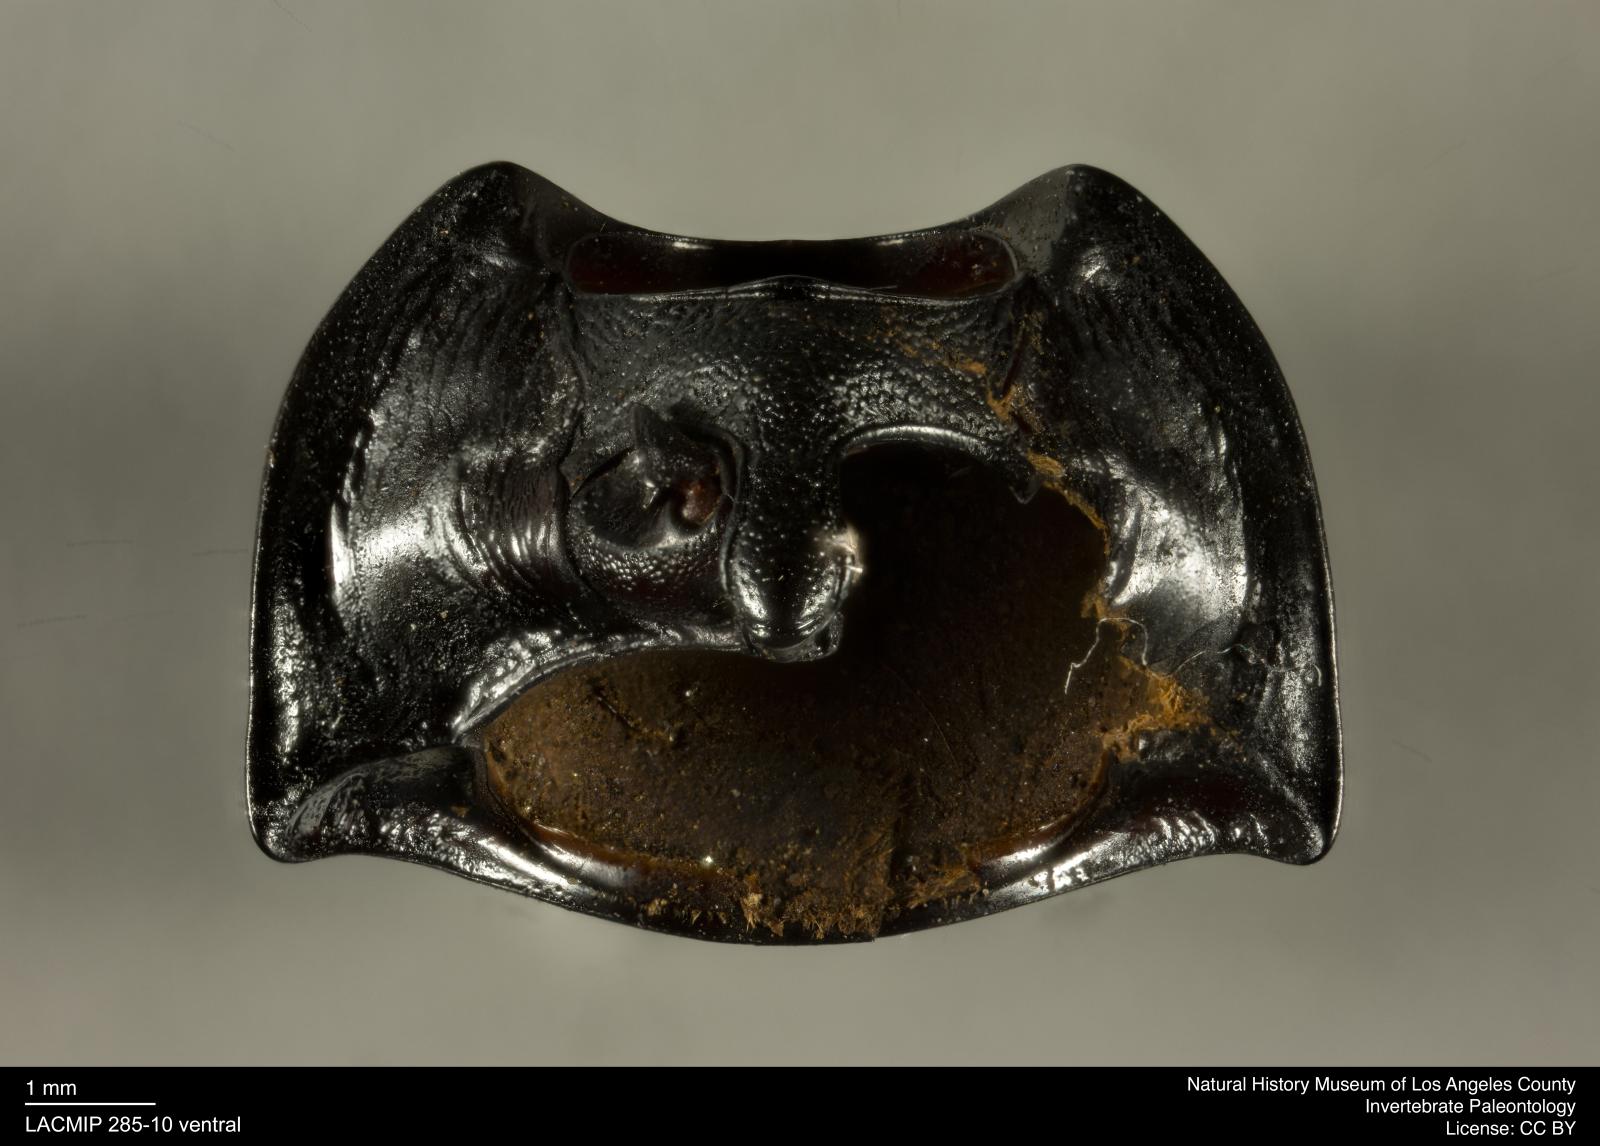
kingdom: Animalia
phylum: Arthropoda
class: Insecta
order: Coleoptera
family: Tenebrionidae
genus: Coniontis
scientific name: Coniontis abdominalis
